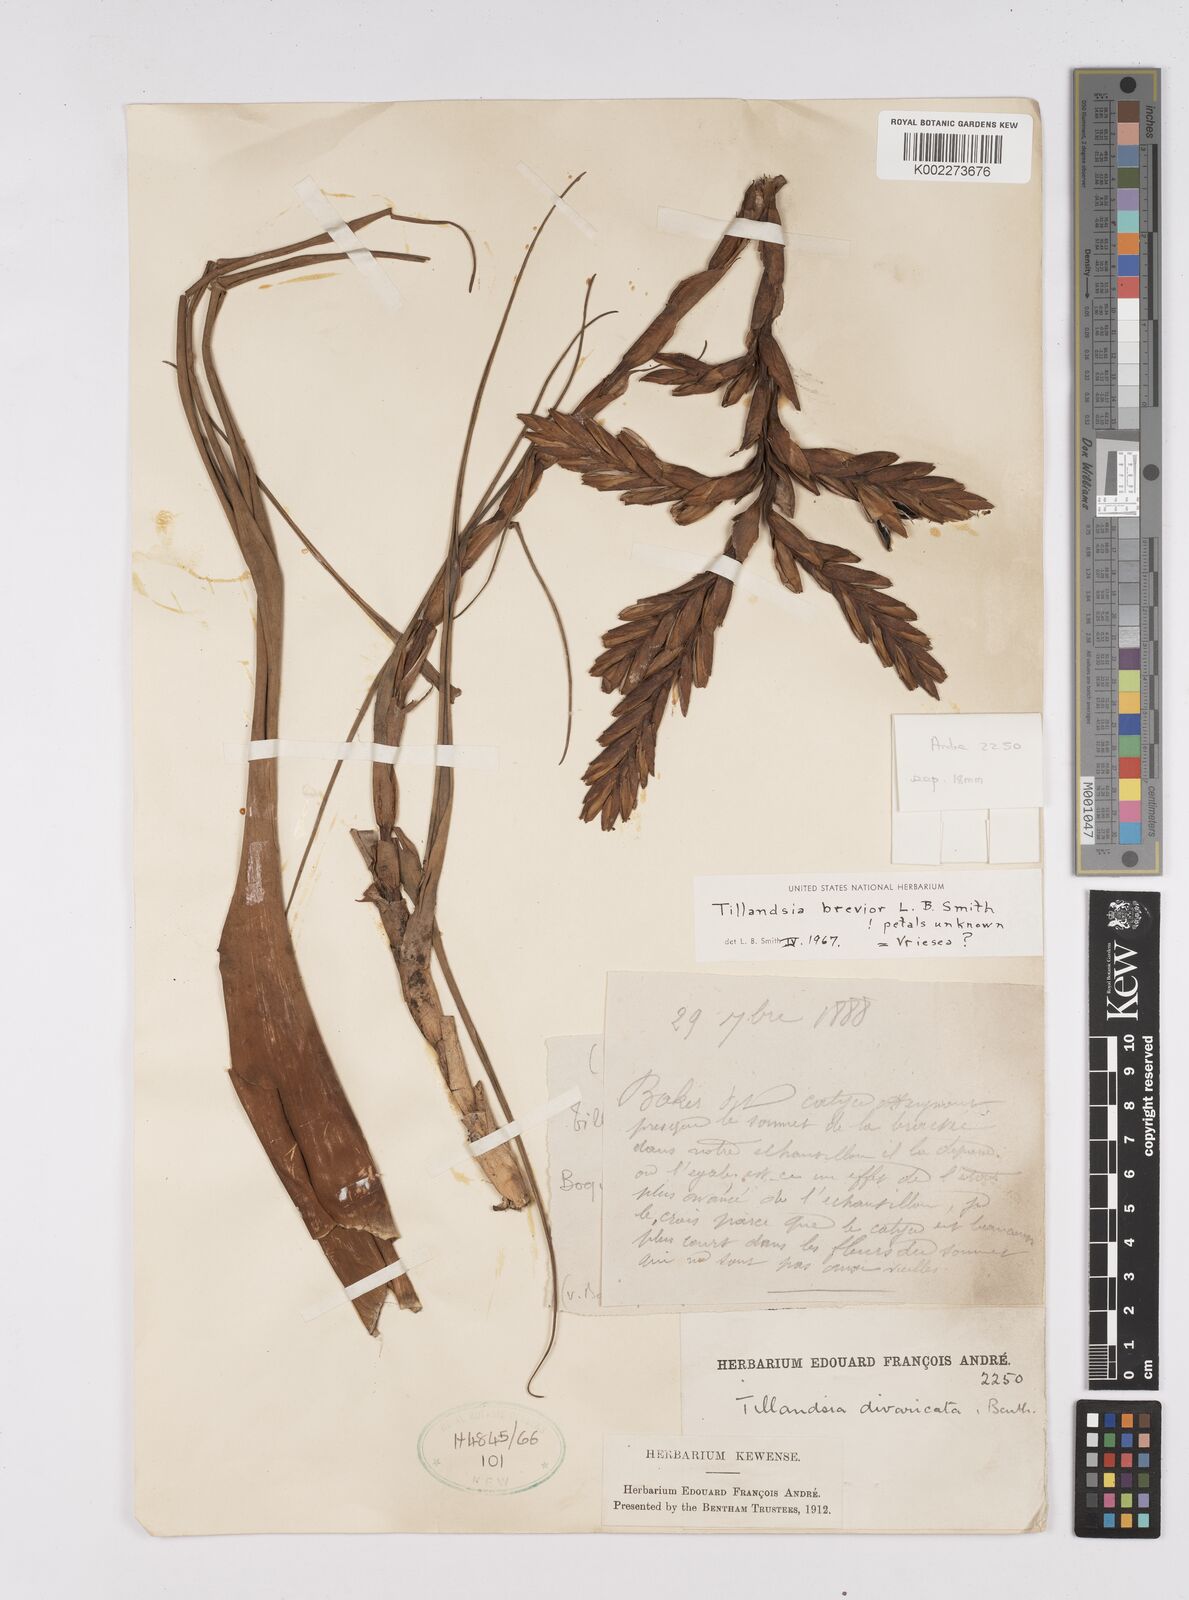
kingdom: Plantae
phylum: Tracheophyta
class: Liliopsida
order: Poales
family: Bromeliaceae
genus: Tillandsia
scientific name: Tillandsia brevior
